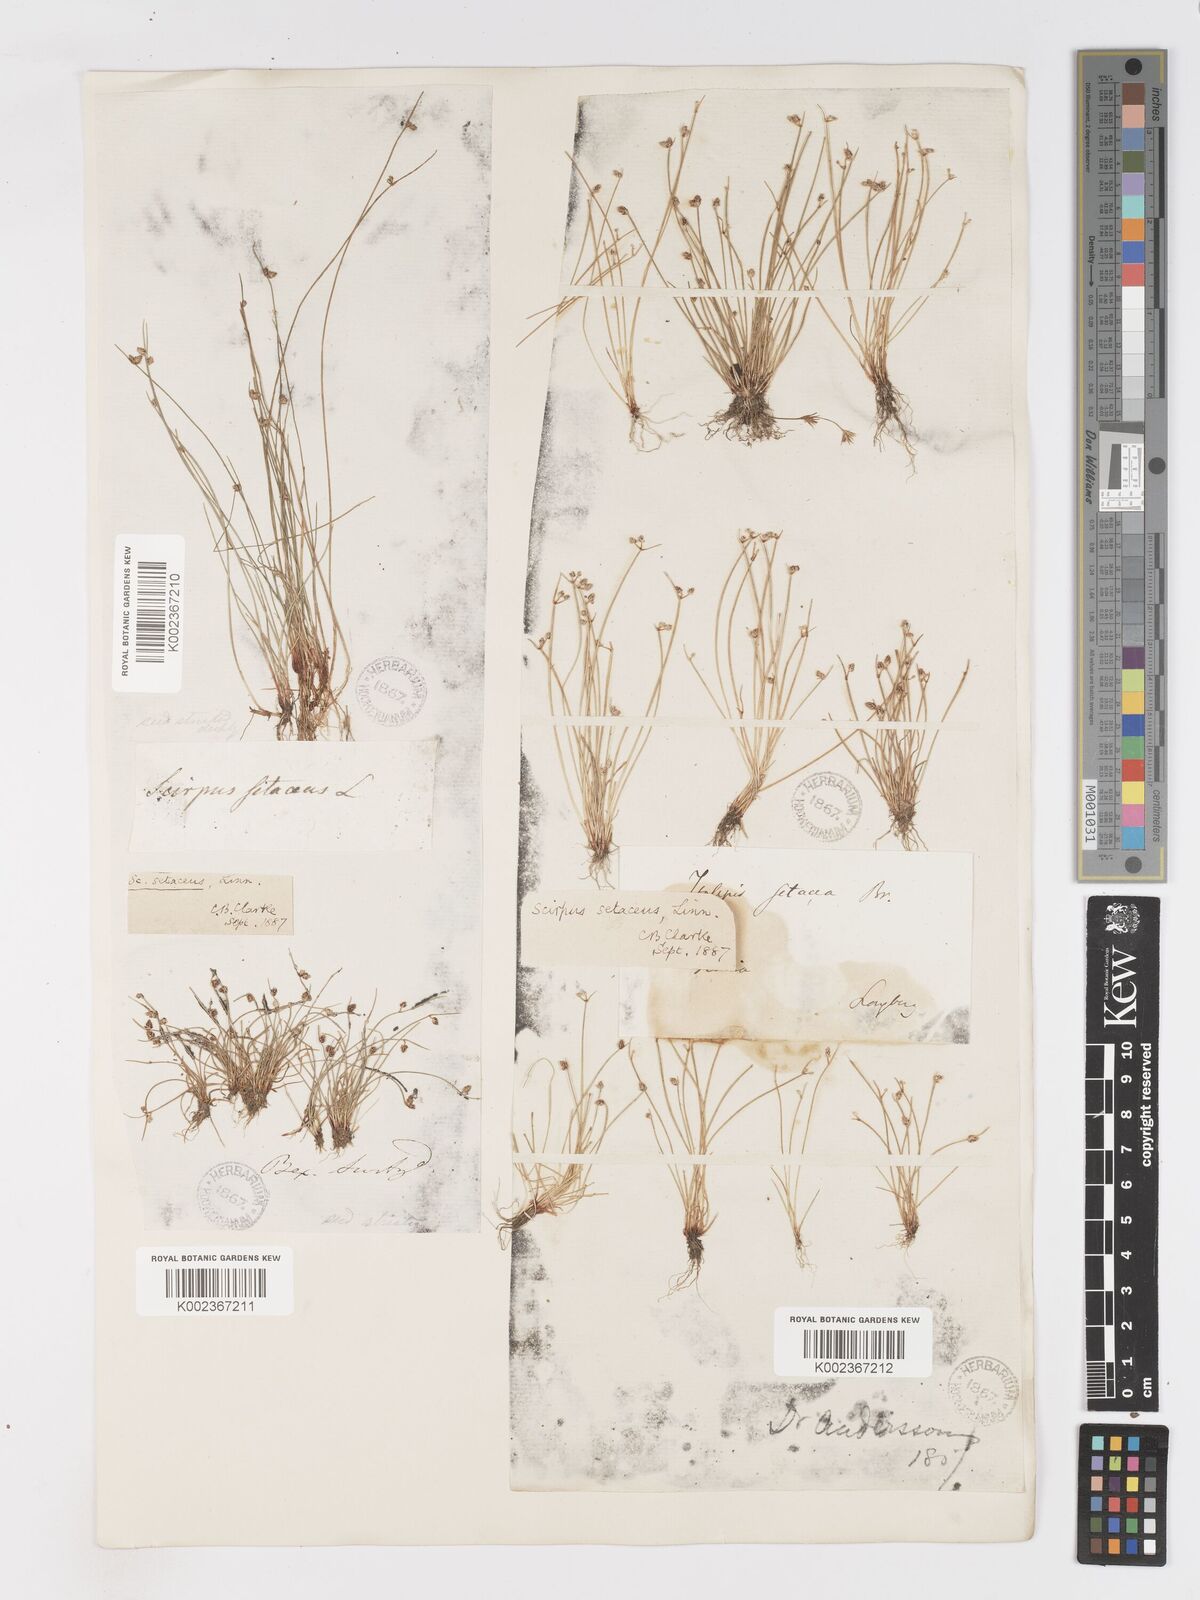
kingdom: Plantae
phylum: Tracheophyta
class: Liliopsida
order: Poales
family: Cyperaceae
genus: Isolepis
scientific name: Isolepis setacea
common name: Bristle club-rush
